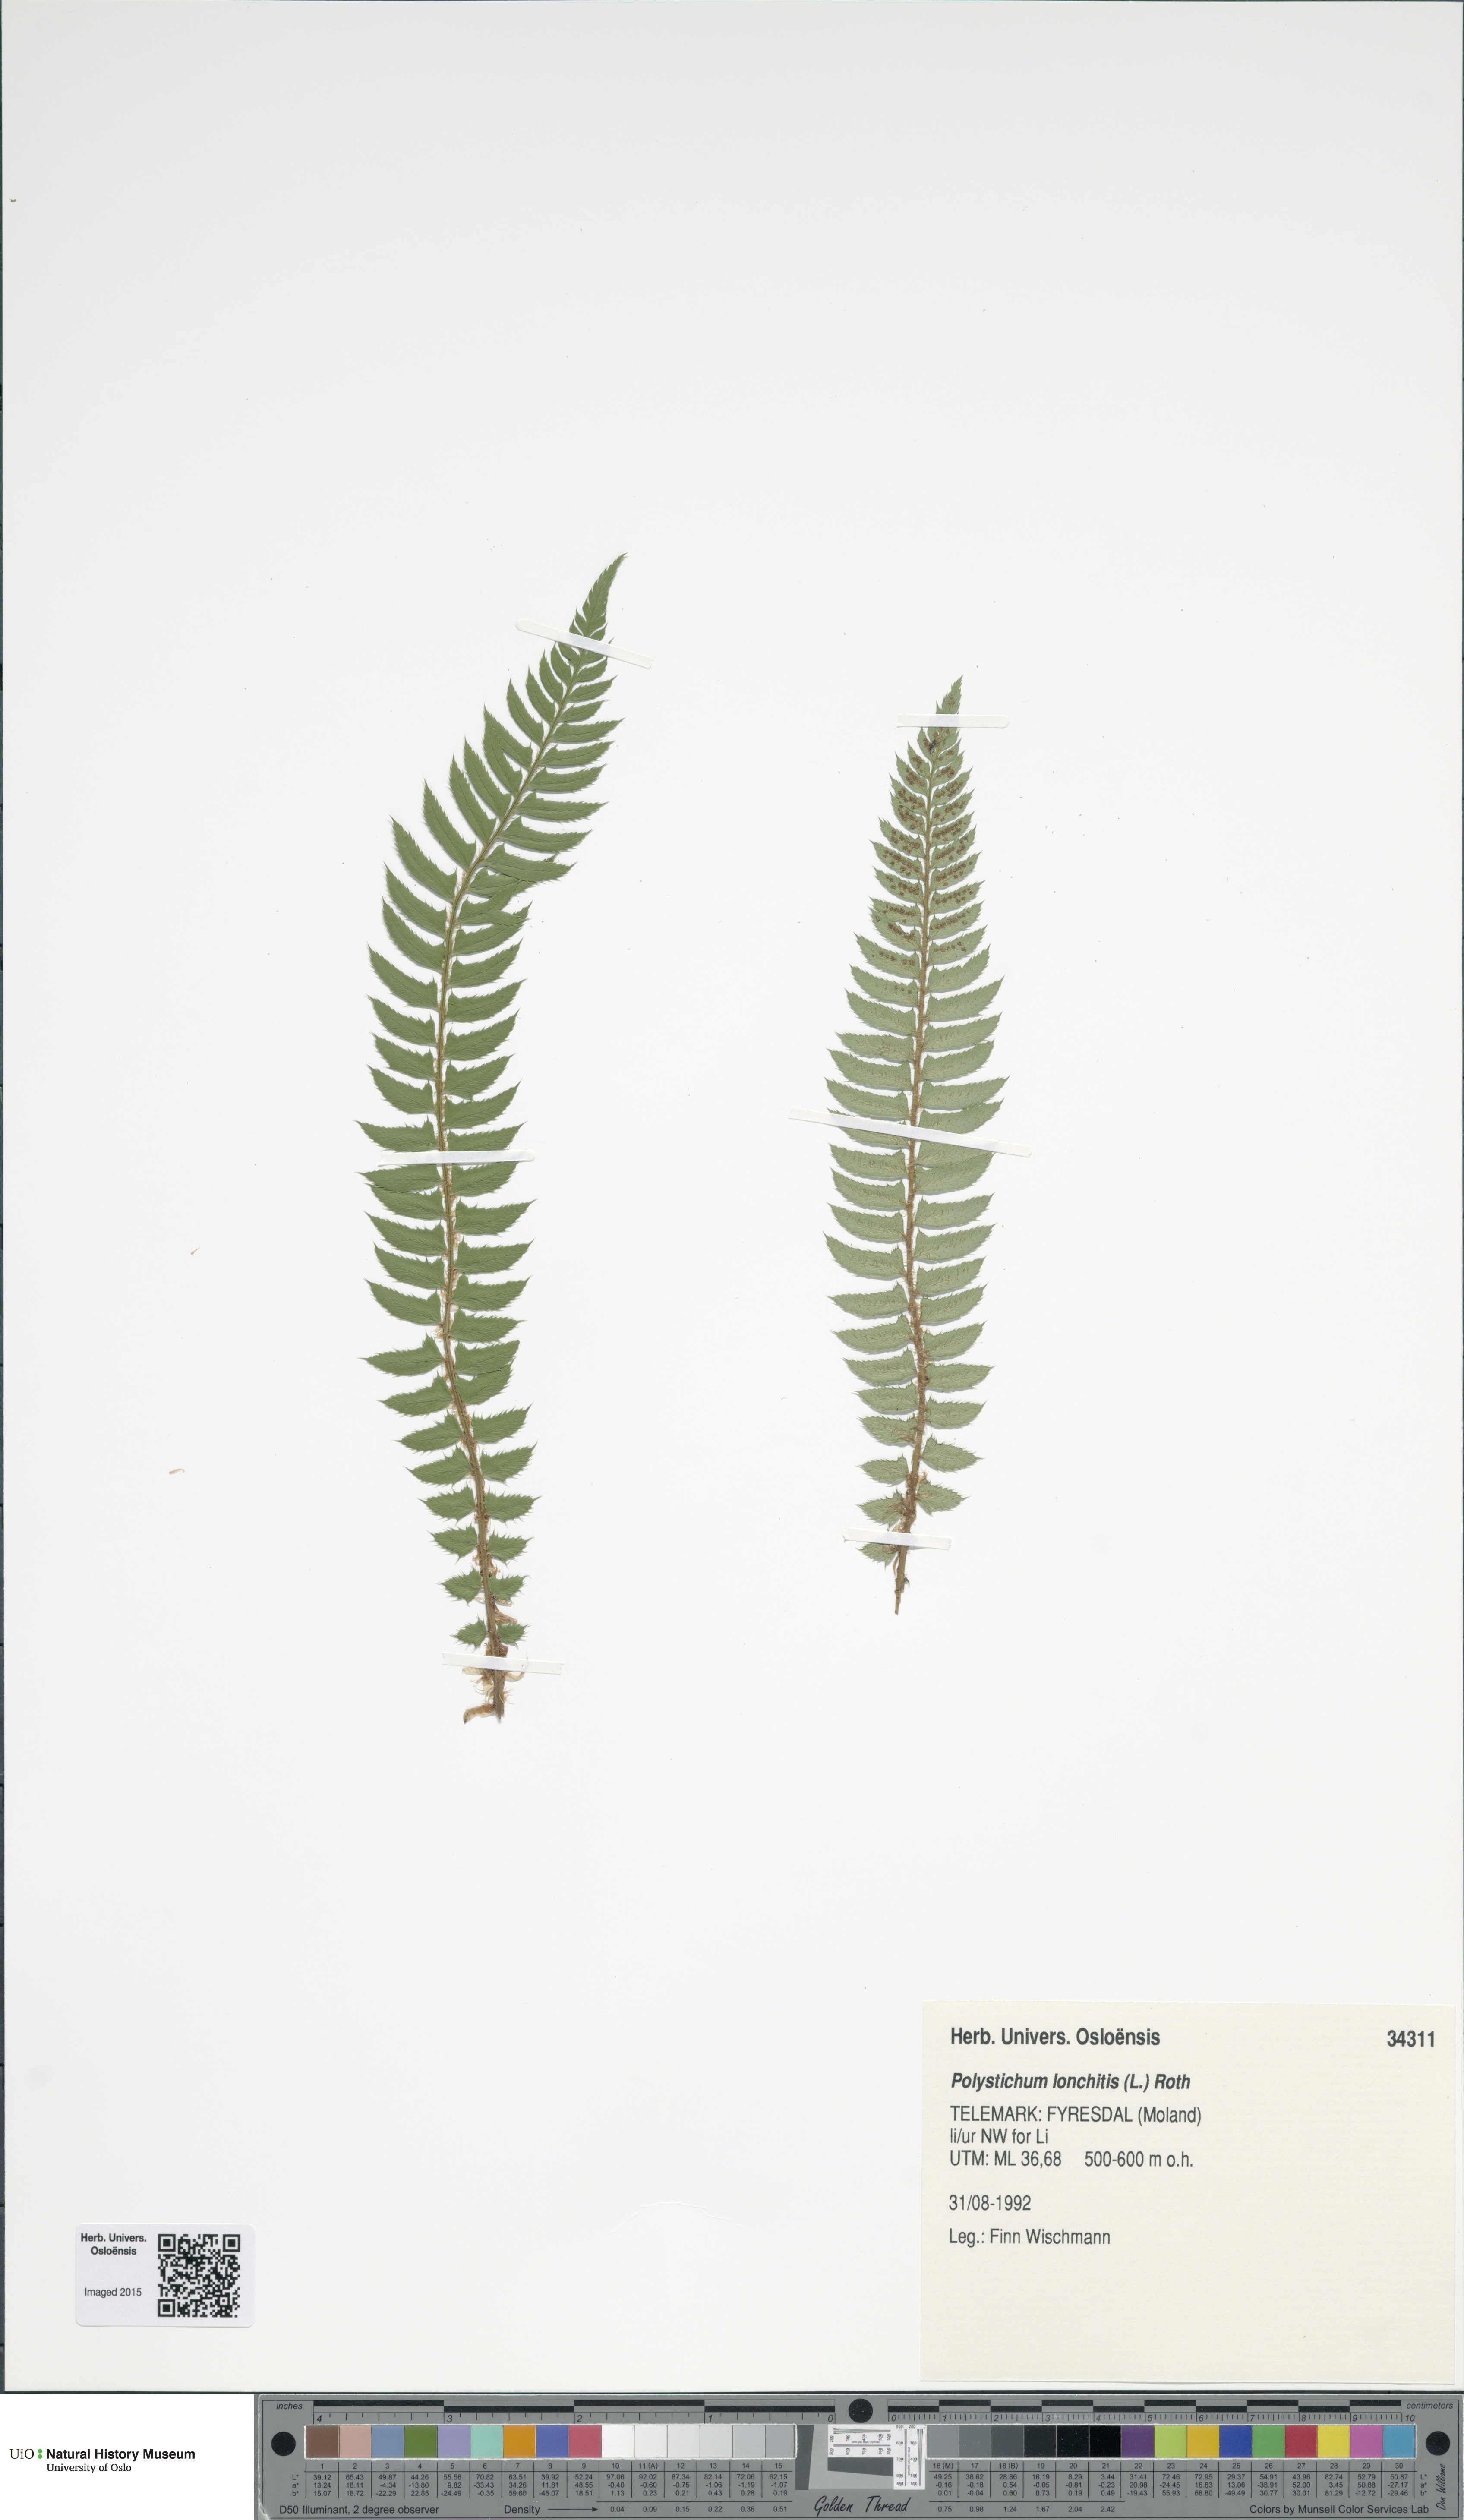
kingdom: Plantae
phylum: Tracheophyta
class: Polypodiopsida
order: Polypodiales
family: Dryopteridaceae
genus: Polystichum
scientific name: Polystichum lonchitis
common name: Holly fern
